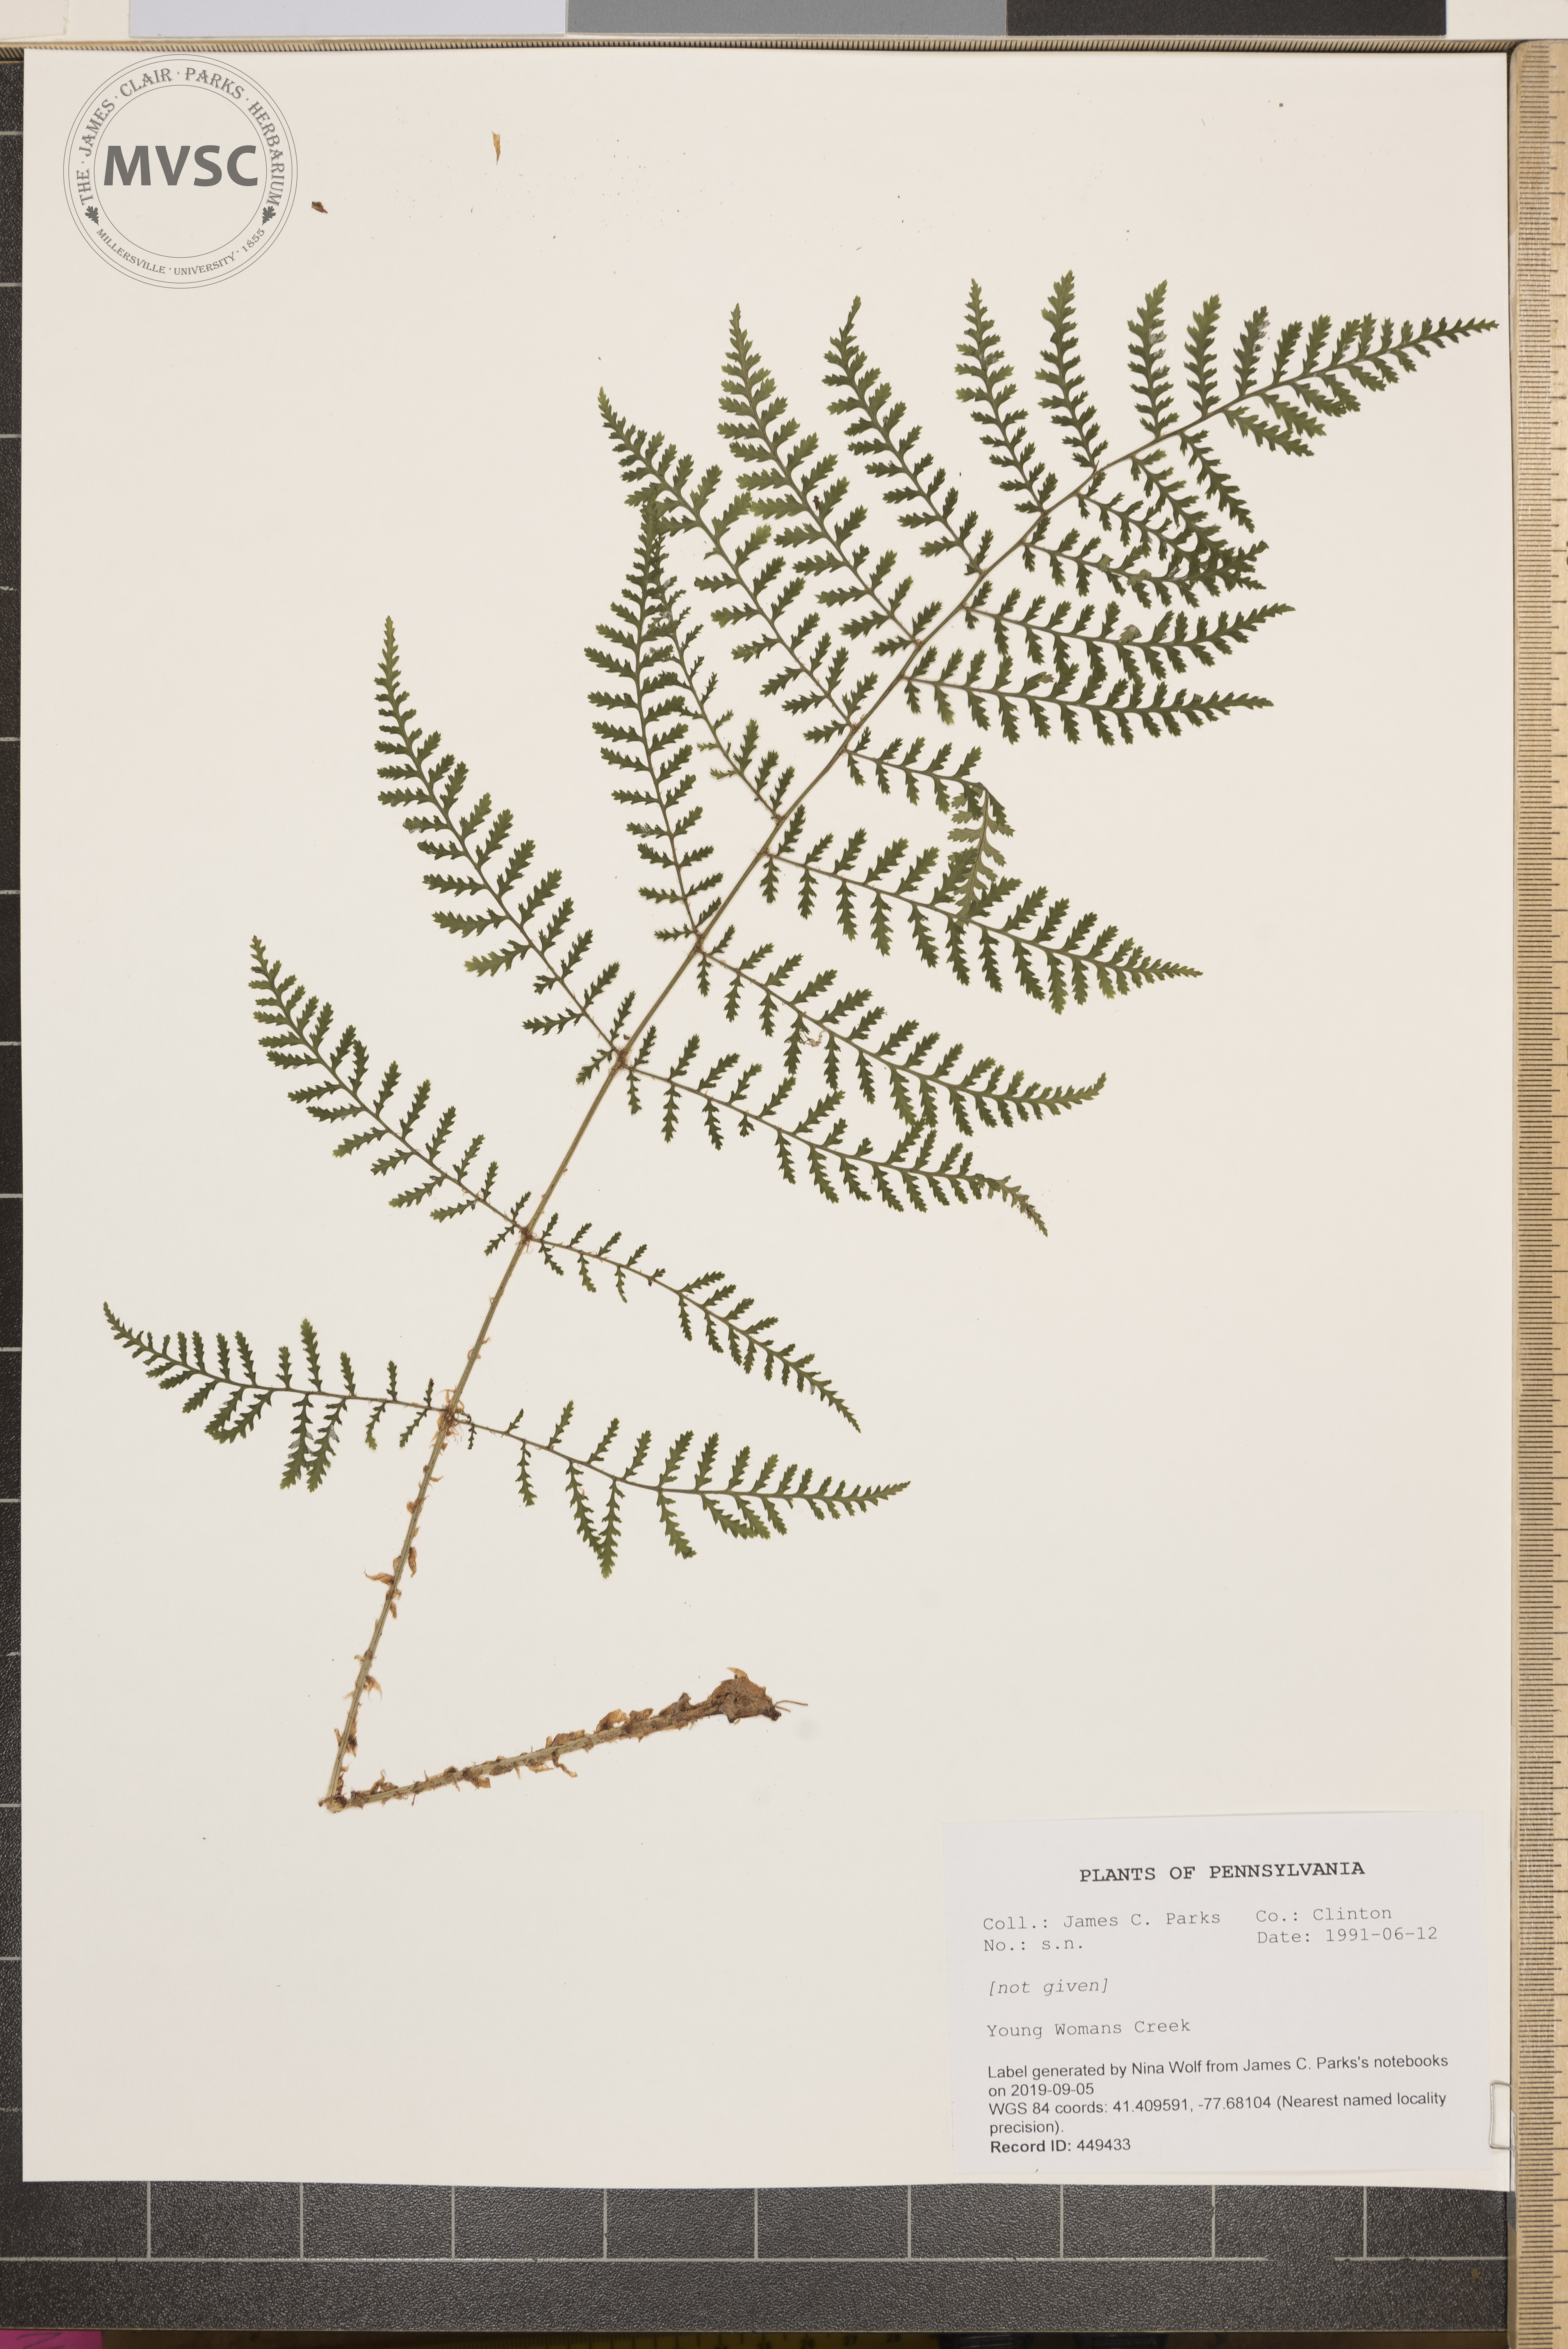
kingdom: Plantae
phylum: Tracheophyta
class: Polypodiopsida
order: Polypodiales
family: Dryopteridaceae
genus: Dryopteris
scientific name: Dryopteris
